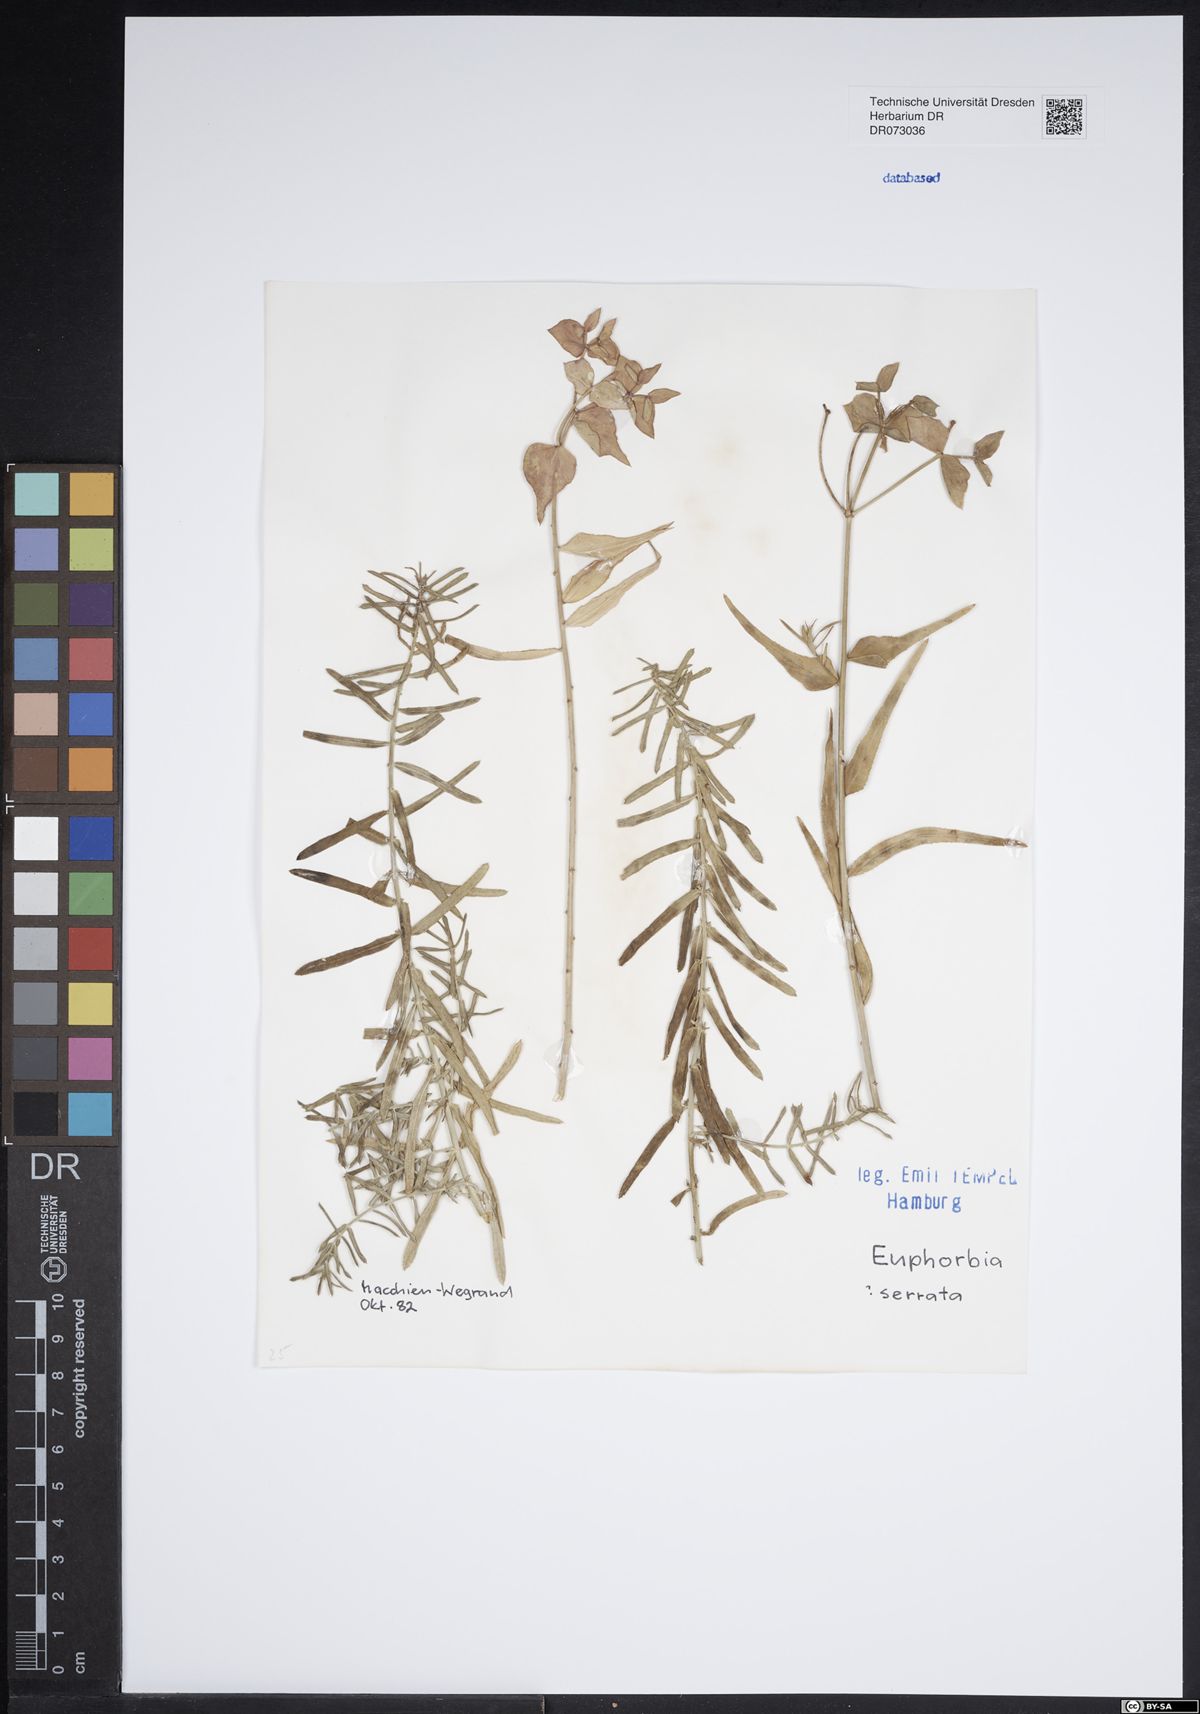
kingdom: Plantae
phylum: Tracheophyta
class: Magnoliopsida
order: Malpighiales
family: Euphorbiaceae
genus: Chrozophora
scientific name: Chrozophora tinctoria
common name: Dyer's litmus
